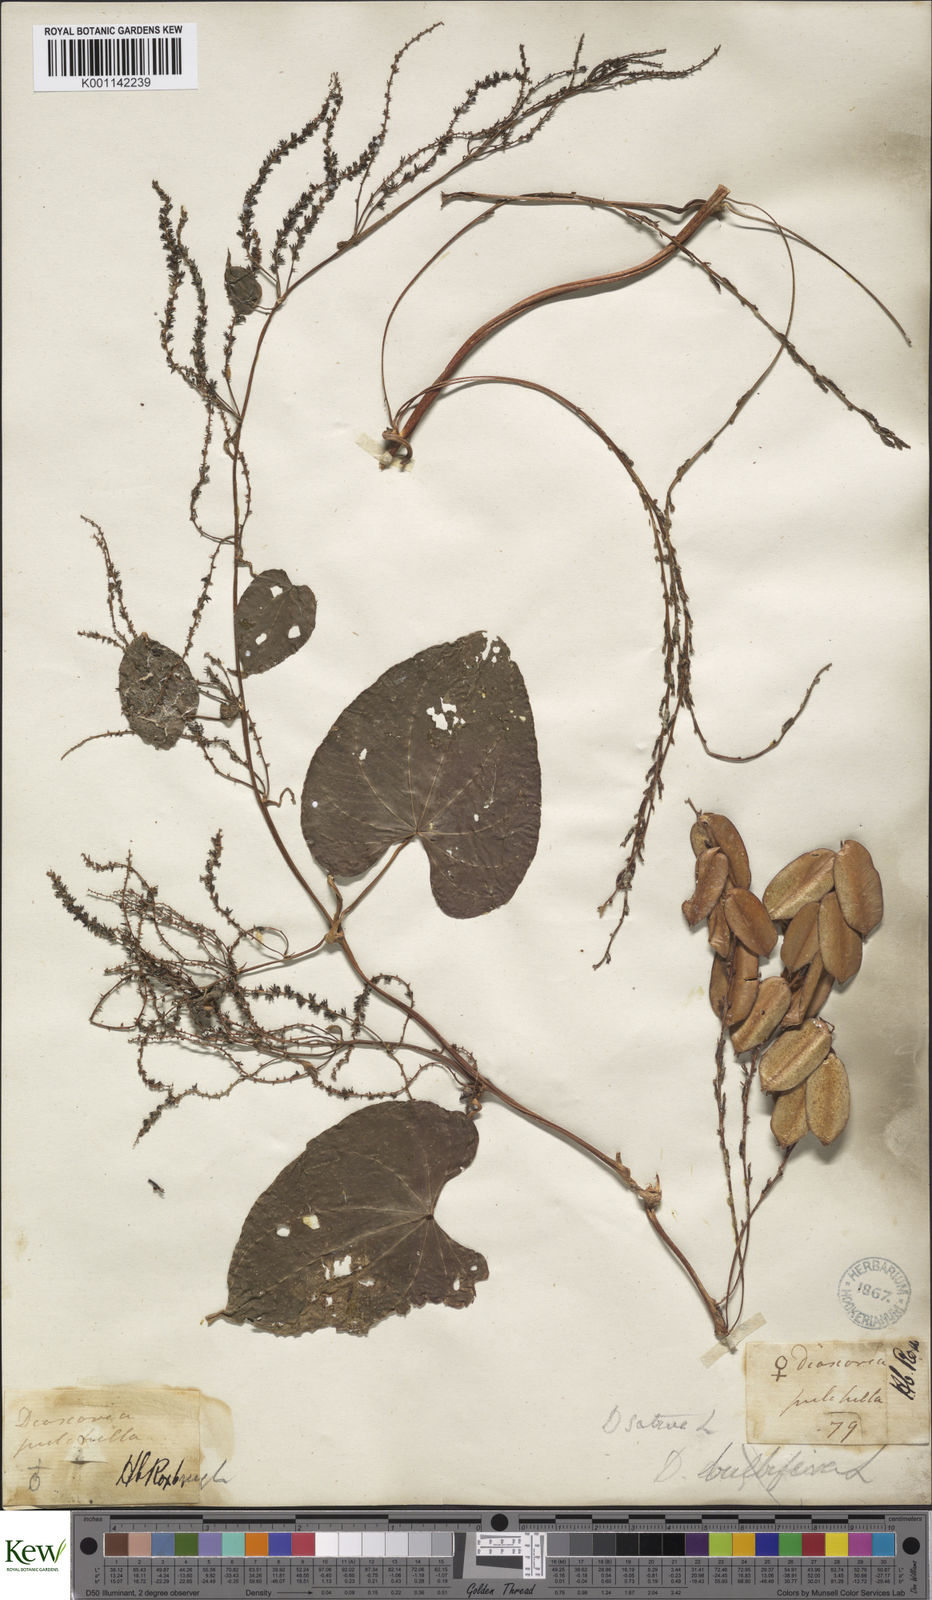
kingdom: Plantae
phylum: Tracheophyta
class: Liliopsida
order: Dioscoreales
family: Dioscoreaceae
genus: Dioscorea
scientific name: Dioscorea bulbifera
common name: Air yam
